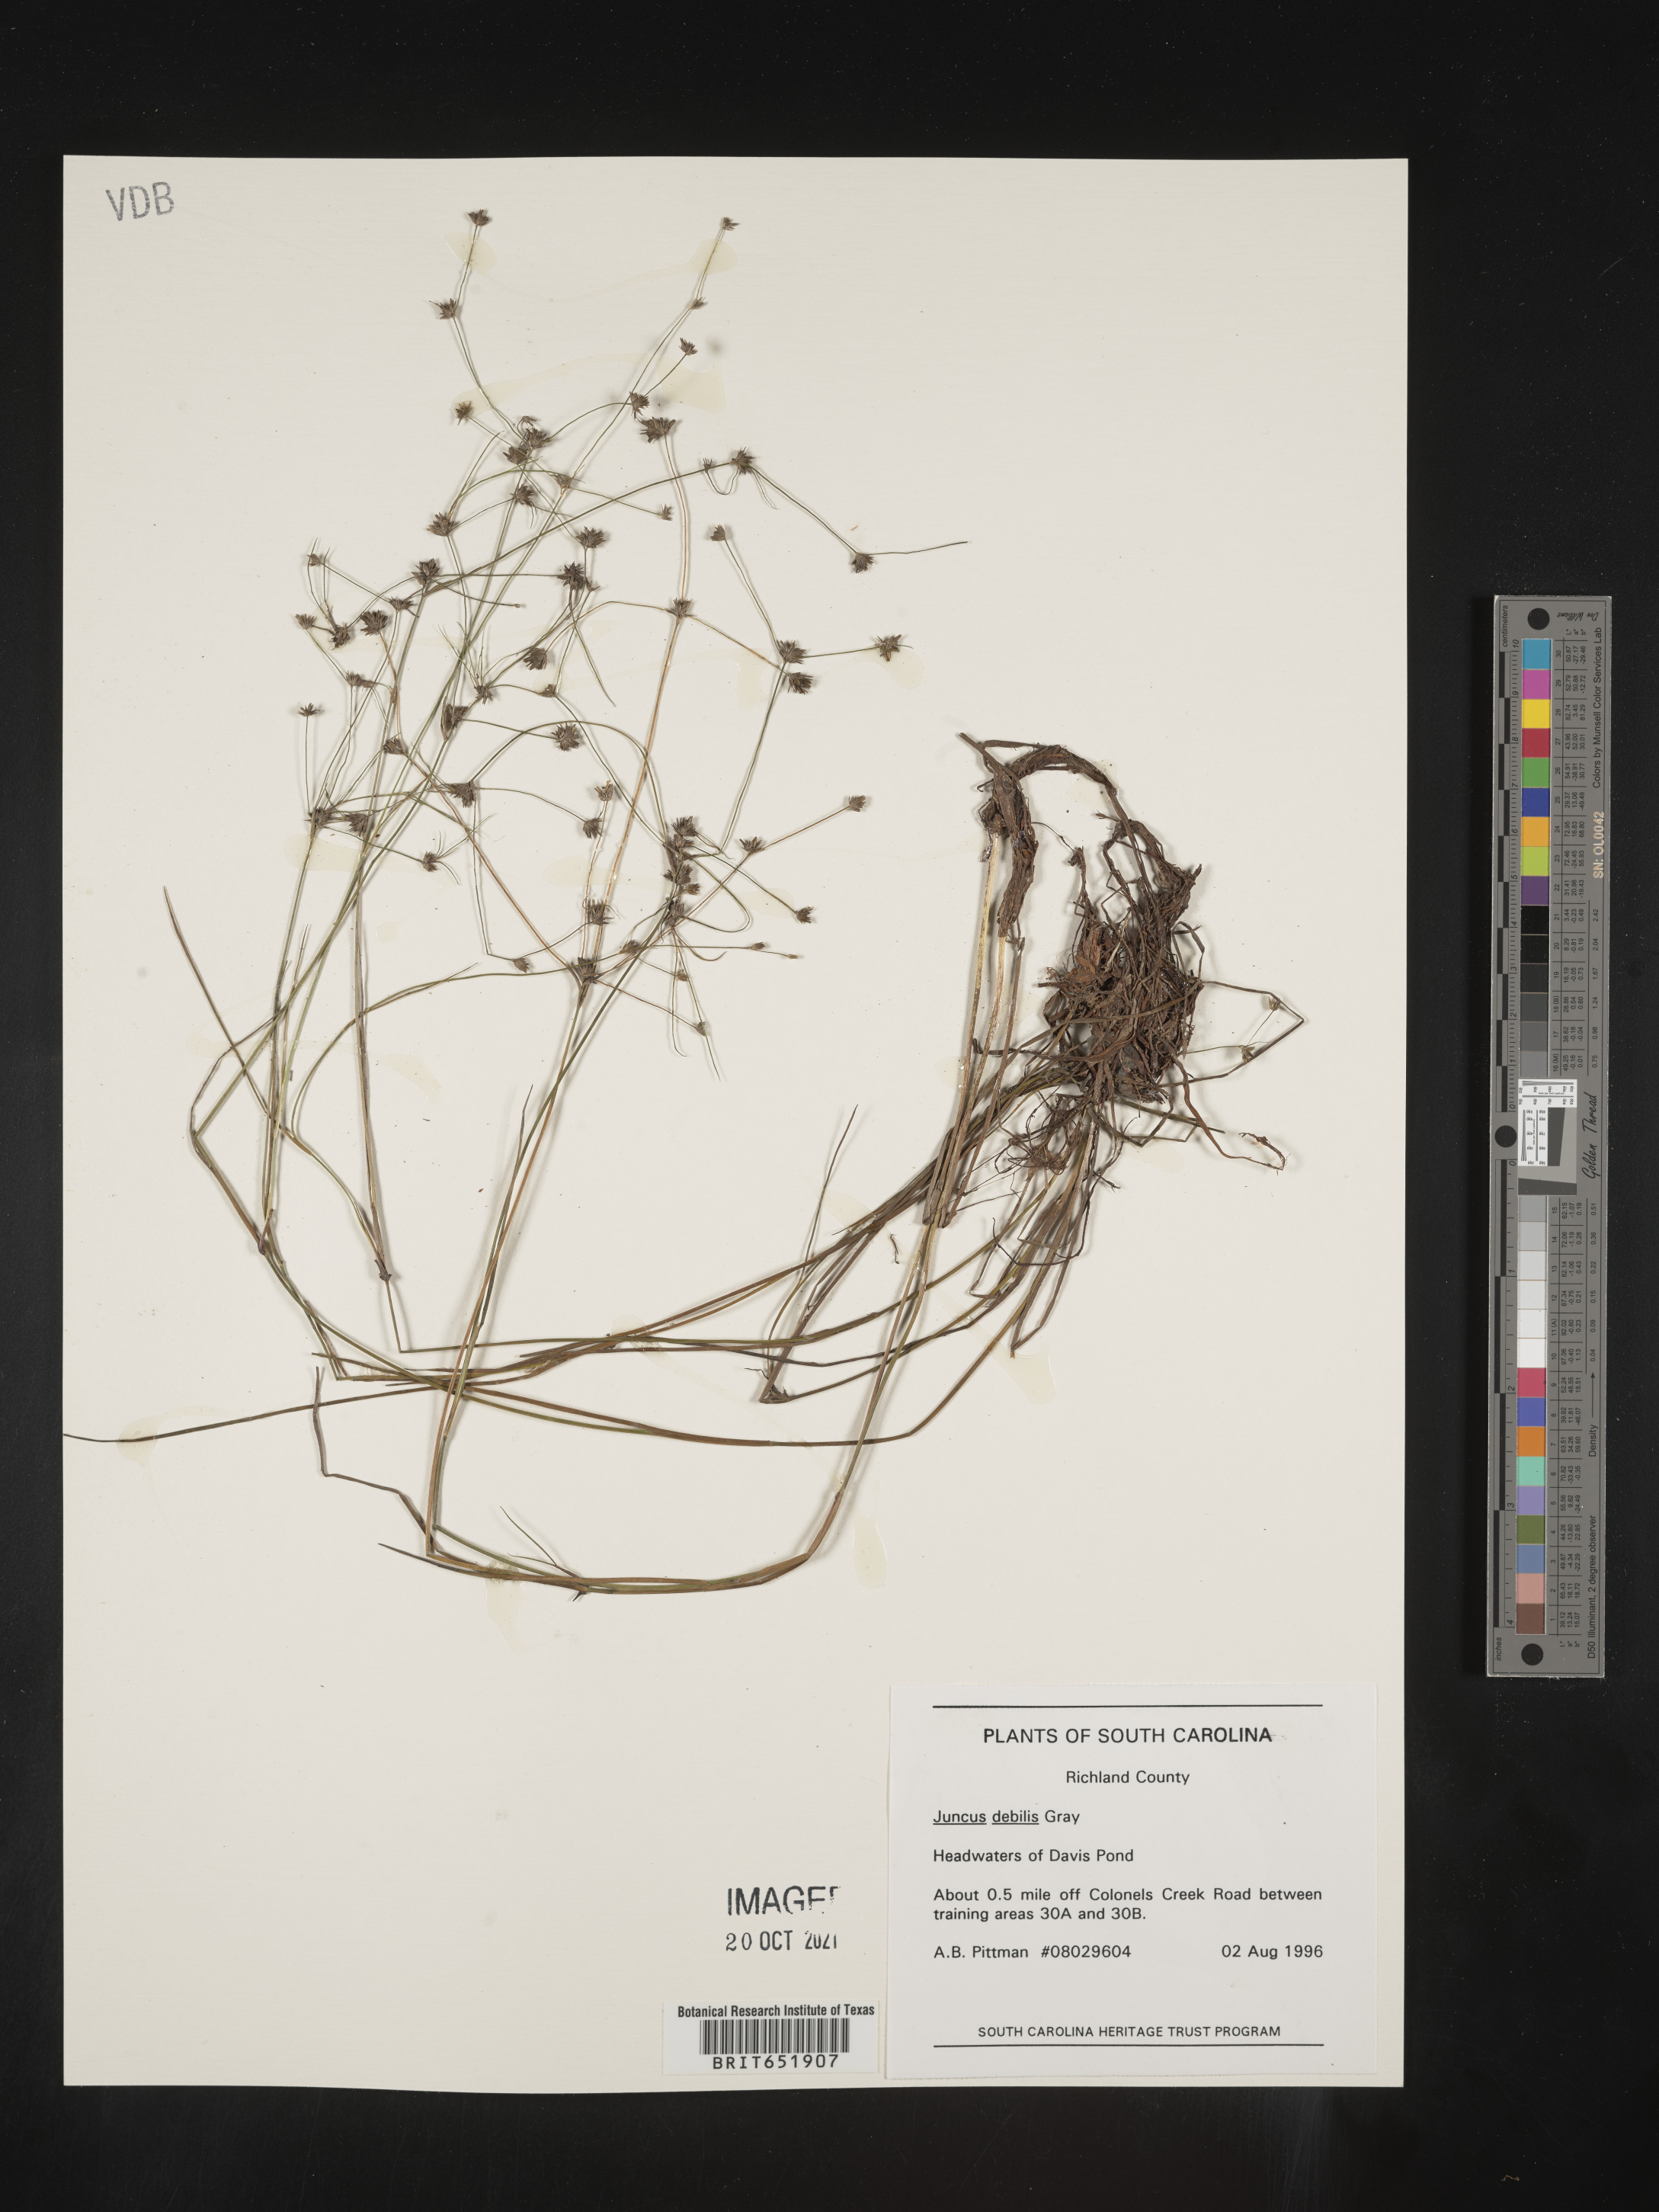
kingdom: Plantae
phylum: Tracheophyta
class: Liliopsida
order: Poales
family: Juncaceae
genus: Juncus
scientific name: Juncus debilis
